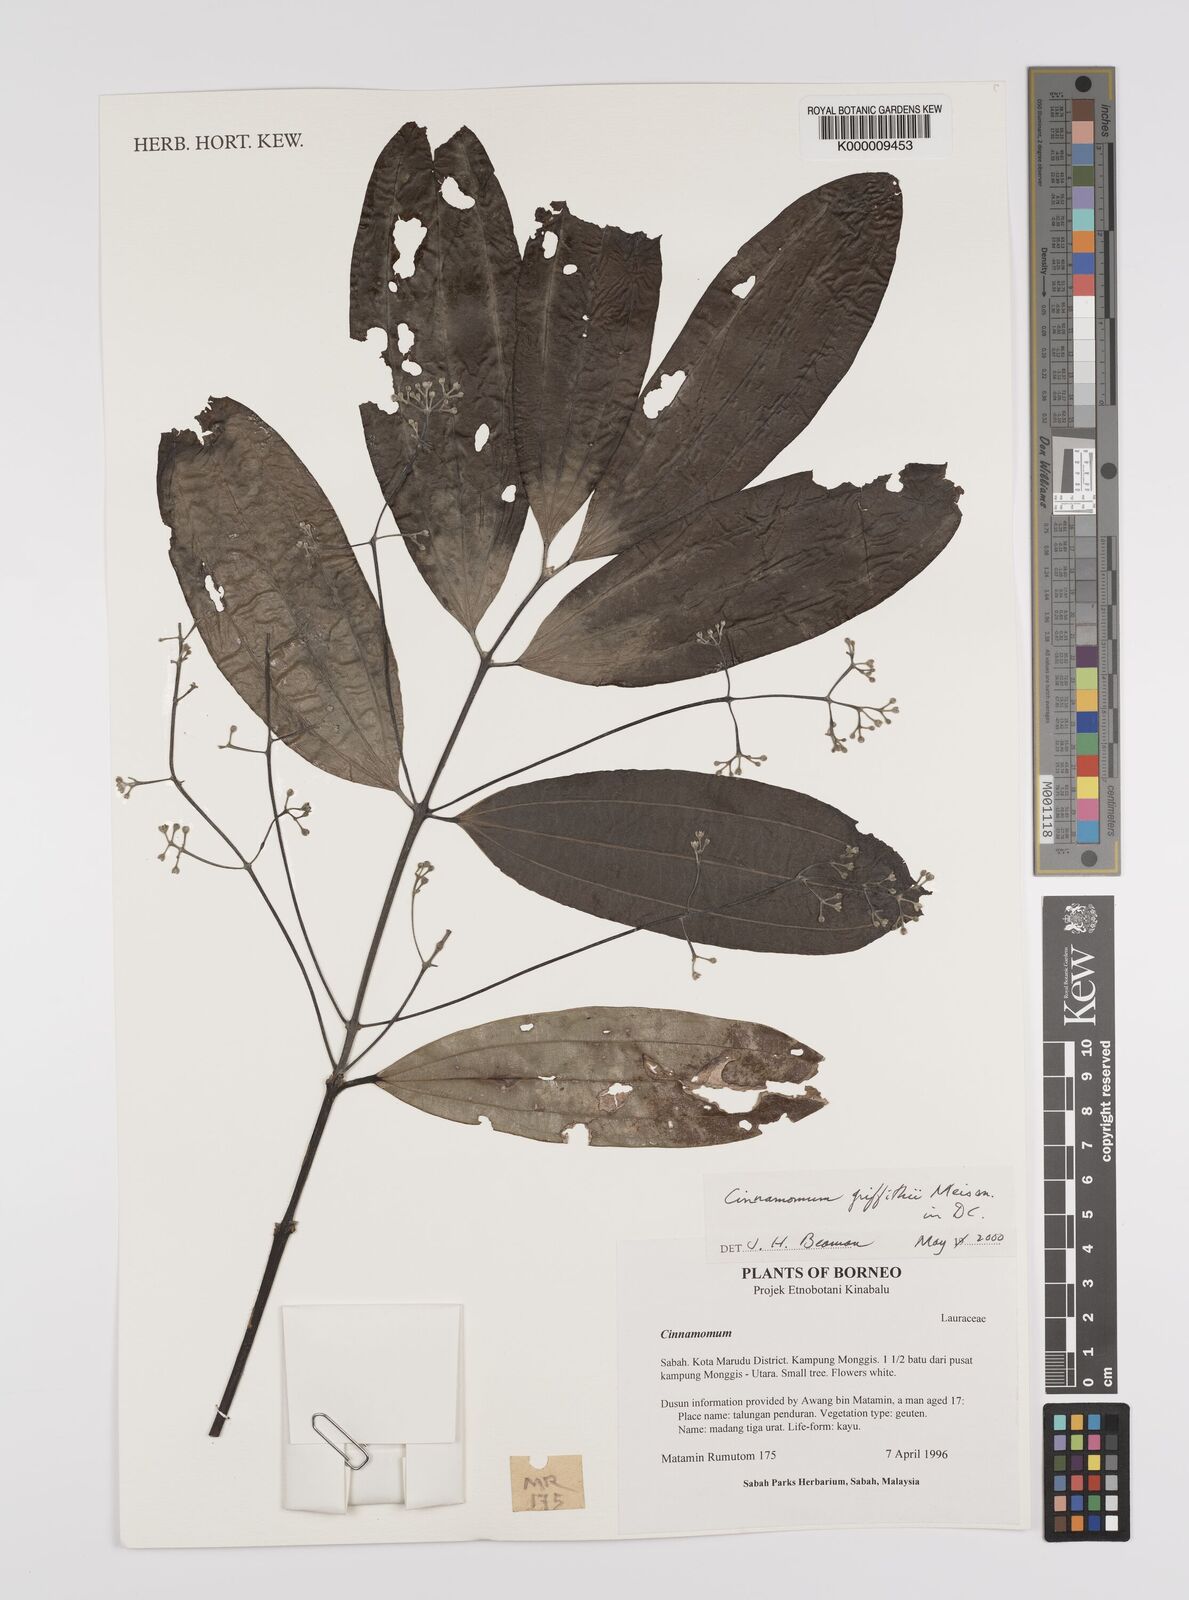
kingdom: Plantae
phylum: Tracheophyta
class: Magnoliopsida
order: Laurales
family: Lauraceae
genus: Cinnamomum
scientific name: Cinnamomum iners
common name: Wild cinnamon
